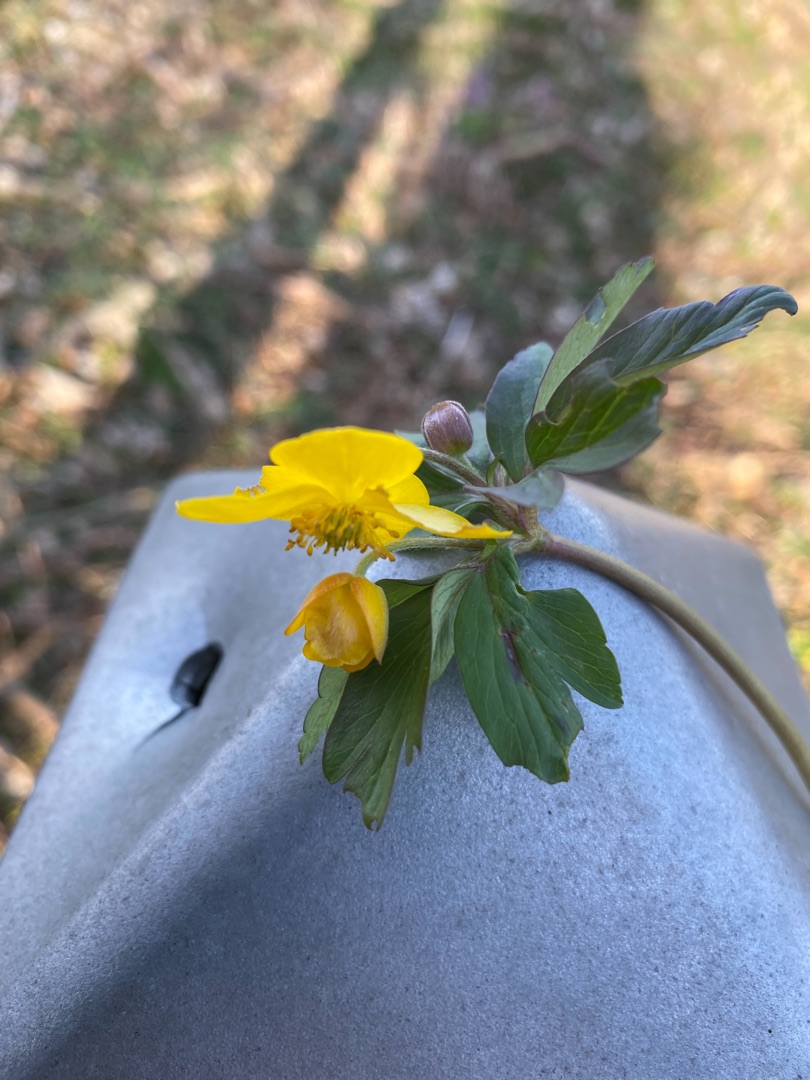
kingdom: Plantae
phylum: Tracheophyta
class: Magnoliopsida
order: Ranunculales
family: Ranunculaceae
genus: Anemone
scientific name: Anemone ranunculoides
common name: Gul anemone
